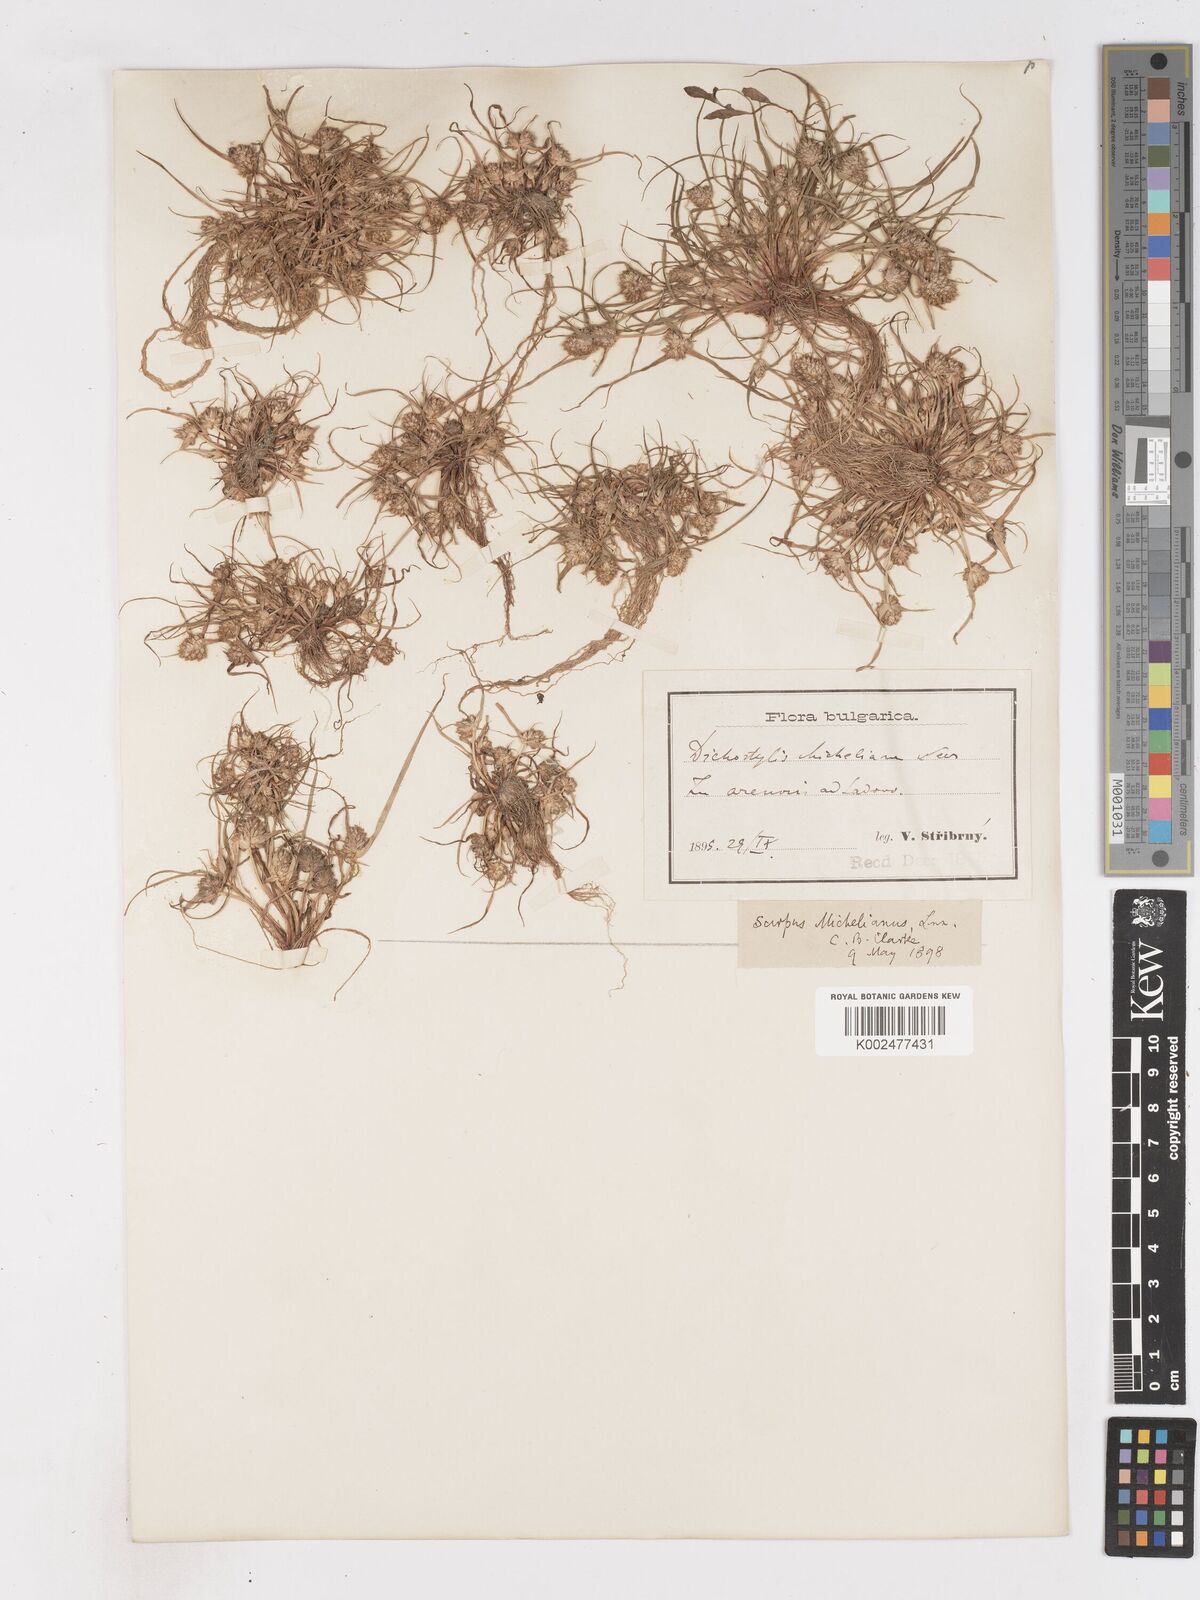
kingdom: Plantae
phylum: Tracheophyta
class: Liliopsida
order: Poales
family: Cyperaceae
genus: Cyperus
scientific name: Cyperus michelianus
